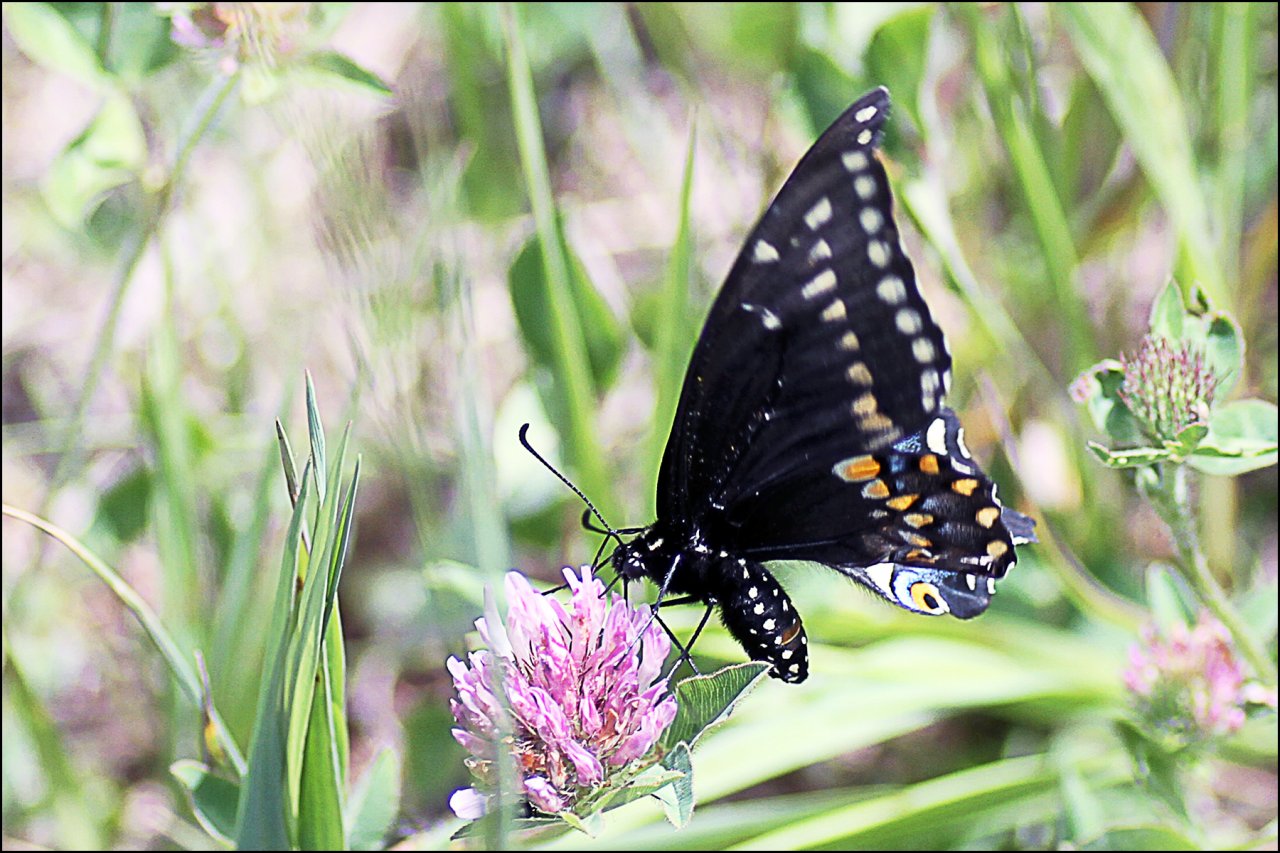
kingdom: Animalia
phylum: Arthropoda
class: Insecta
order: Lepidoptera
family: Papilionidae
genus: Papilio
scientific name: Papilio polyxenes
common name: Black Swallowtail
